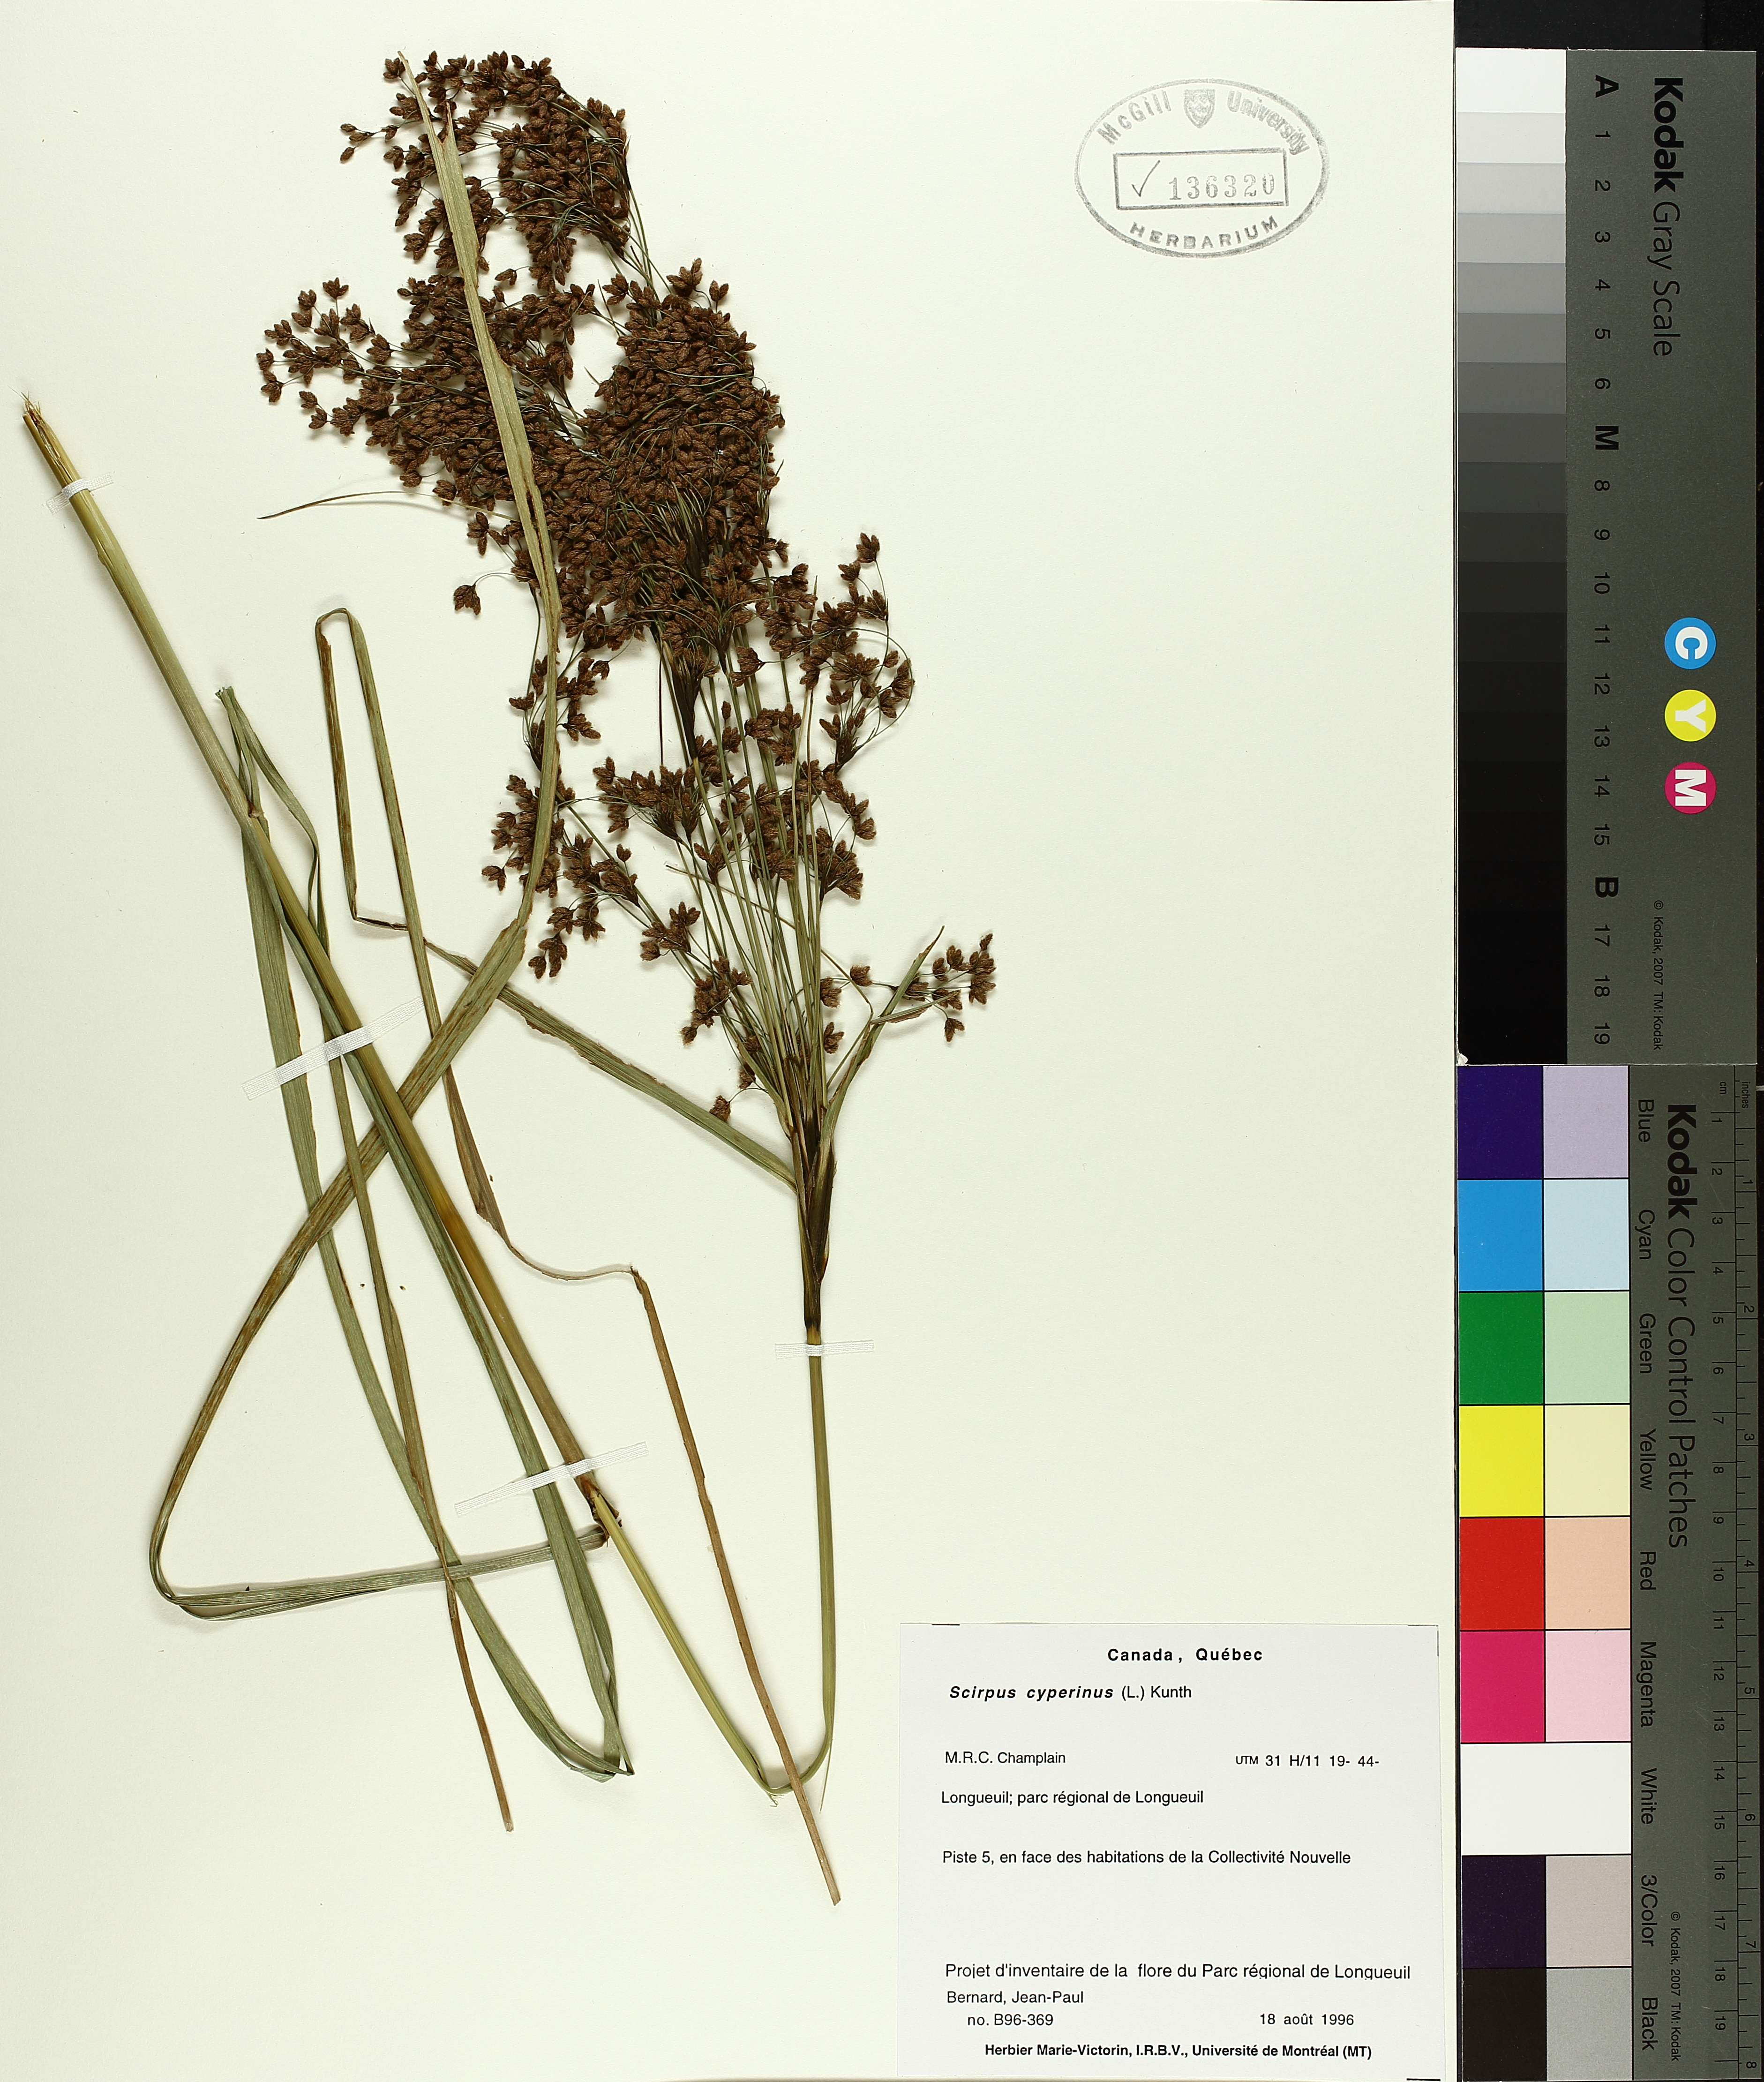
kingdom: Plantae
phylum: Tracheophyta
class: Liliopsida
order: Poales
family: Cyperaceae
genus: Scirpus
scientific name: Scirpus cyperinus
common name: Black-sheathed bulrush
